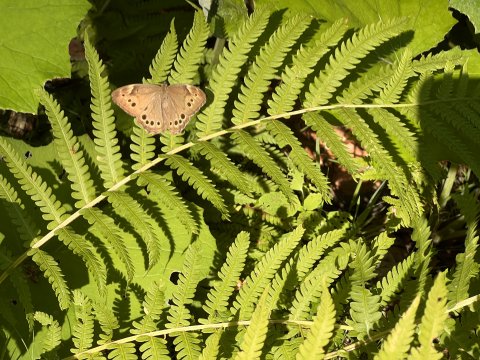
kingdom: Animalia
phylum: Arthropoda
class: Insecta
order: Lepidoptera
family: Nymphalidae
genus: Lethe
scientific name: Lethe anthedon
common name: Northern Pearly-Eye
